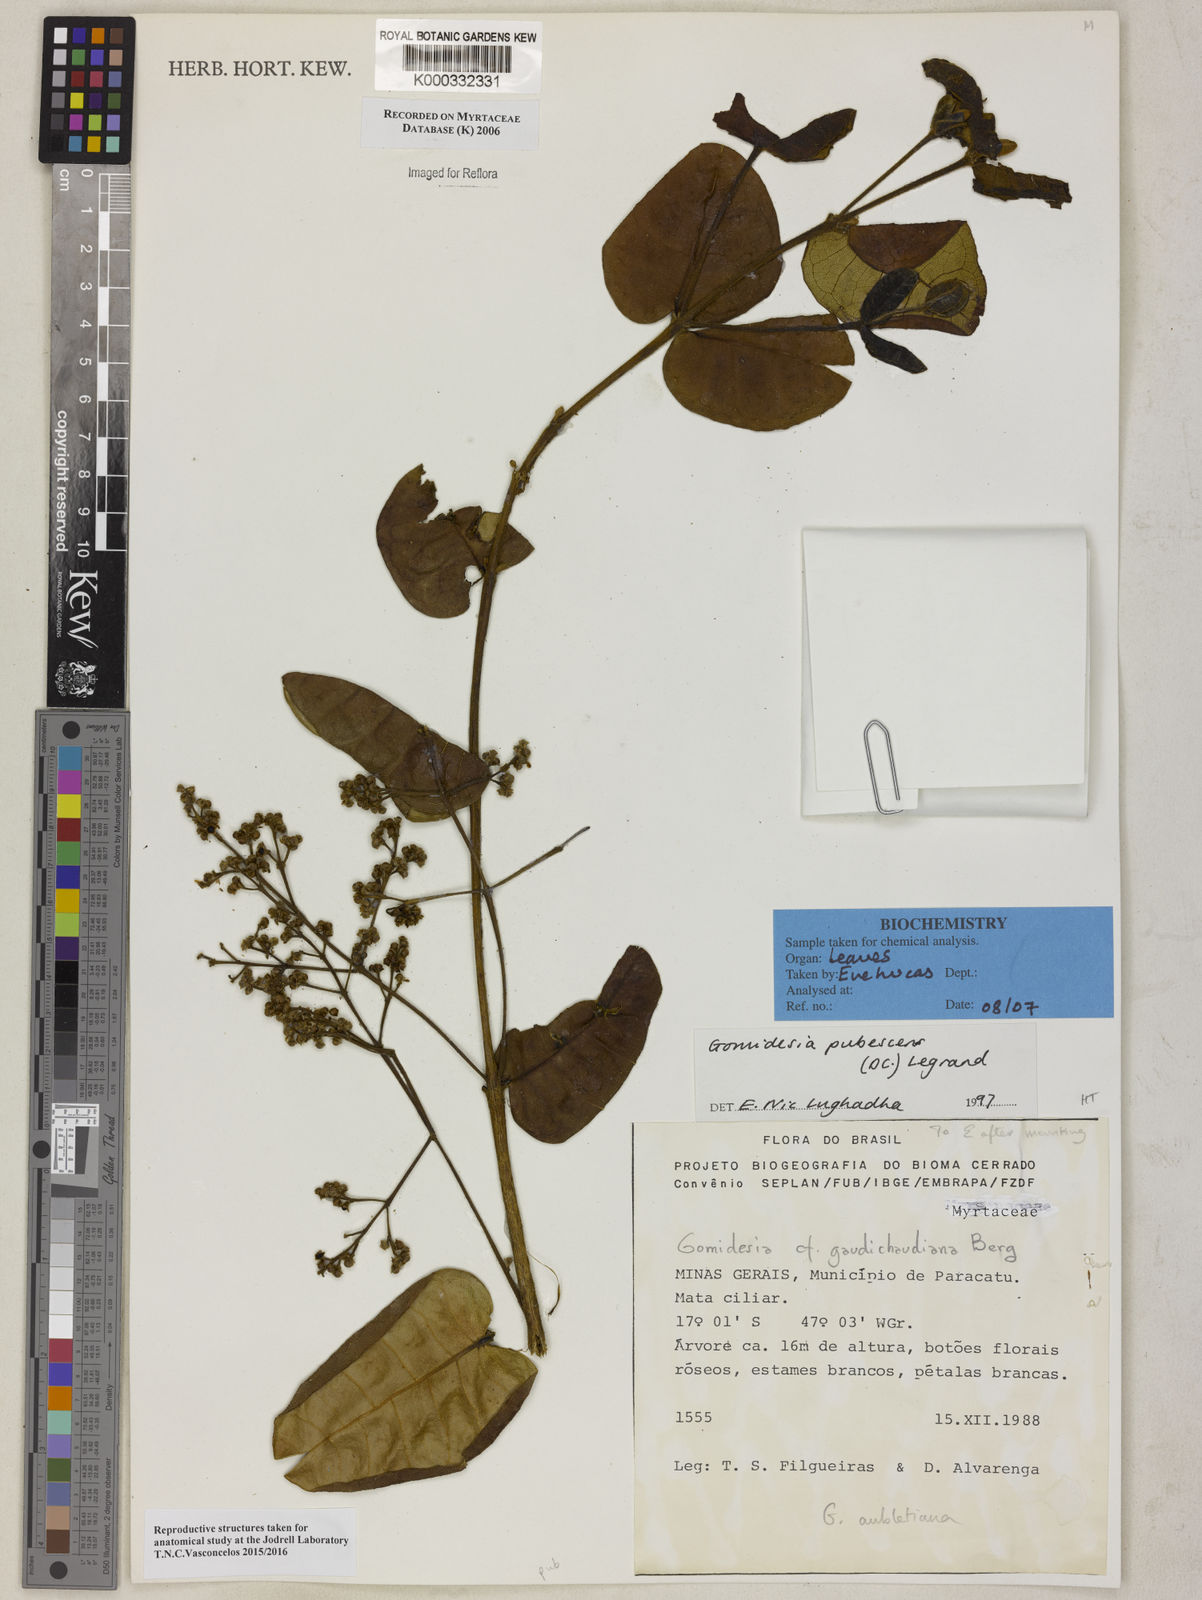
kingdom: Plantae
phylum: Tracheophyta
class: Magnoliopsida
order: Myrtales
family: Myrtaceae
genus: Myrcia
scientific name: Myrcia pubescens
